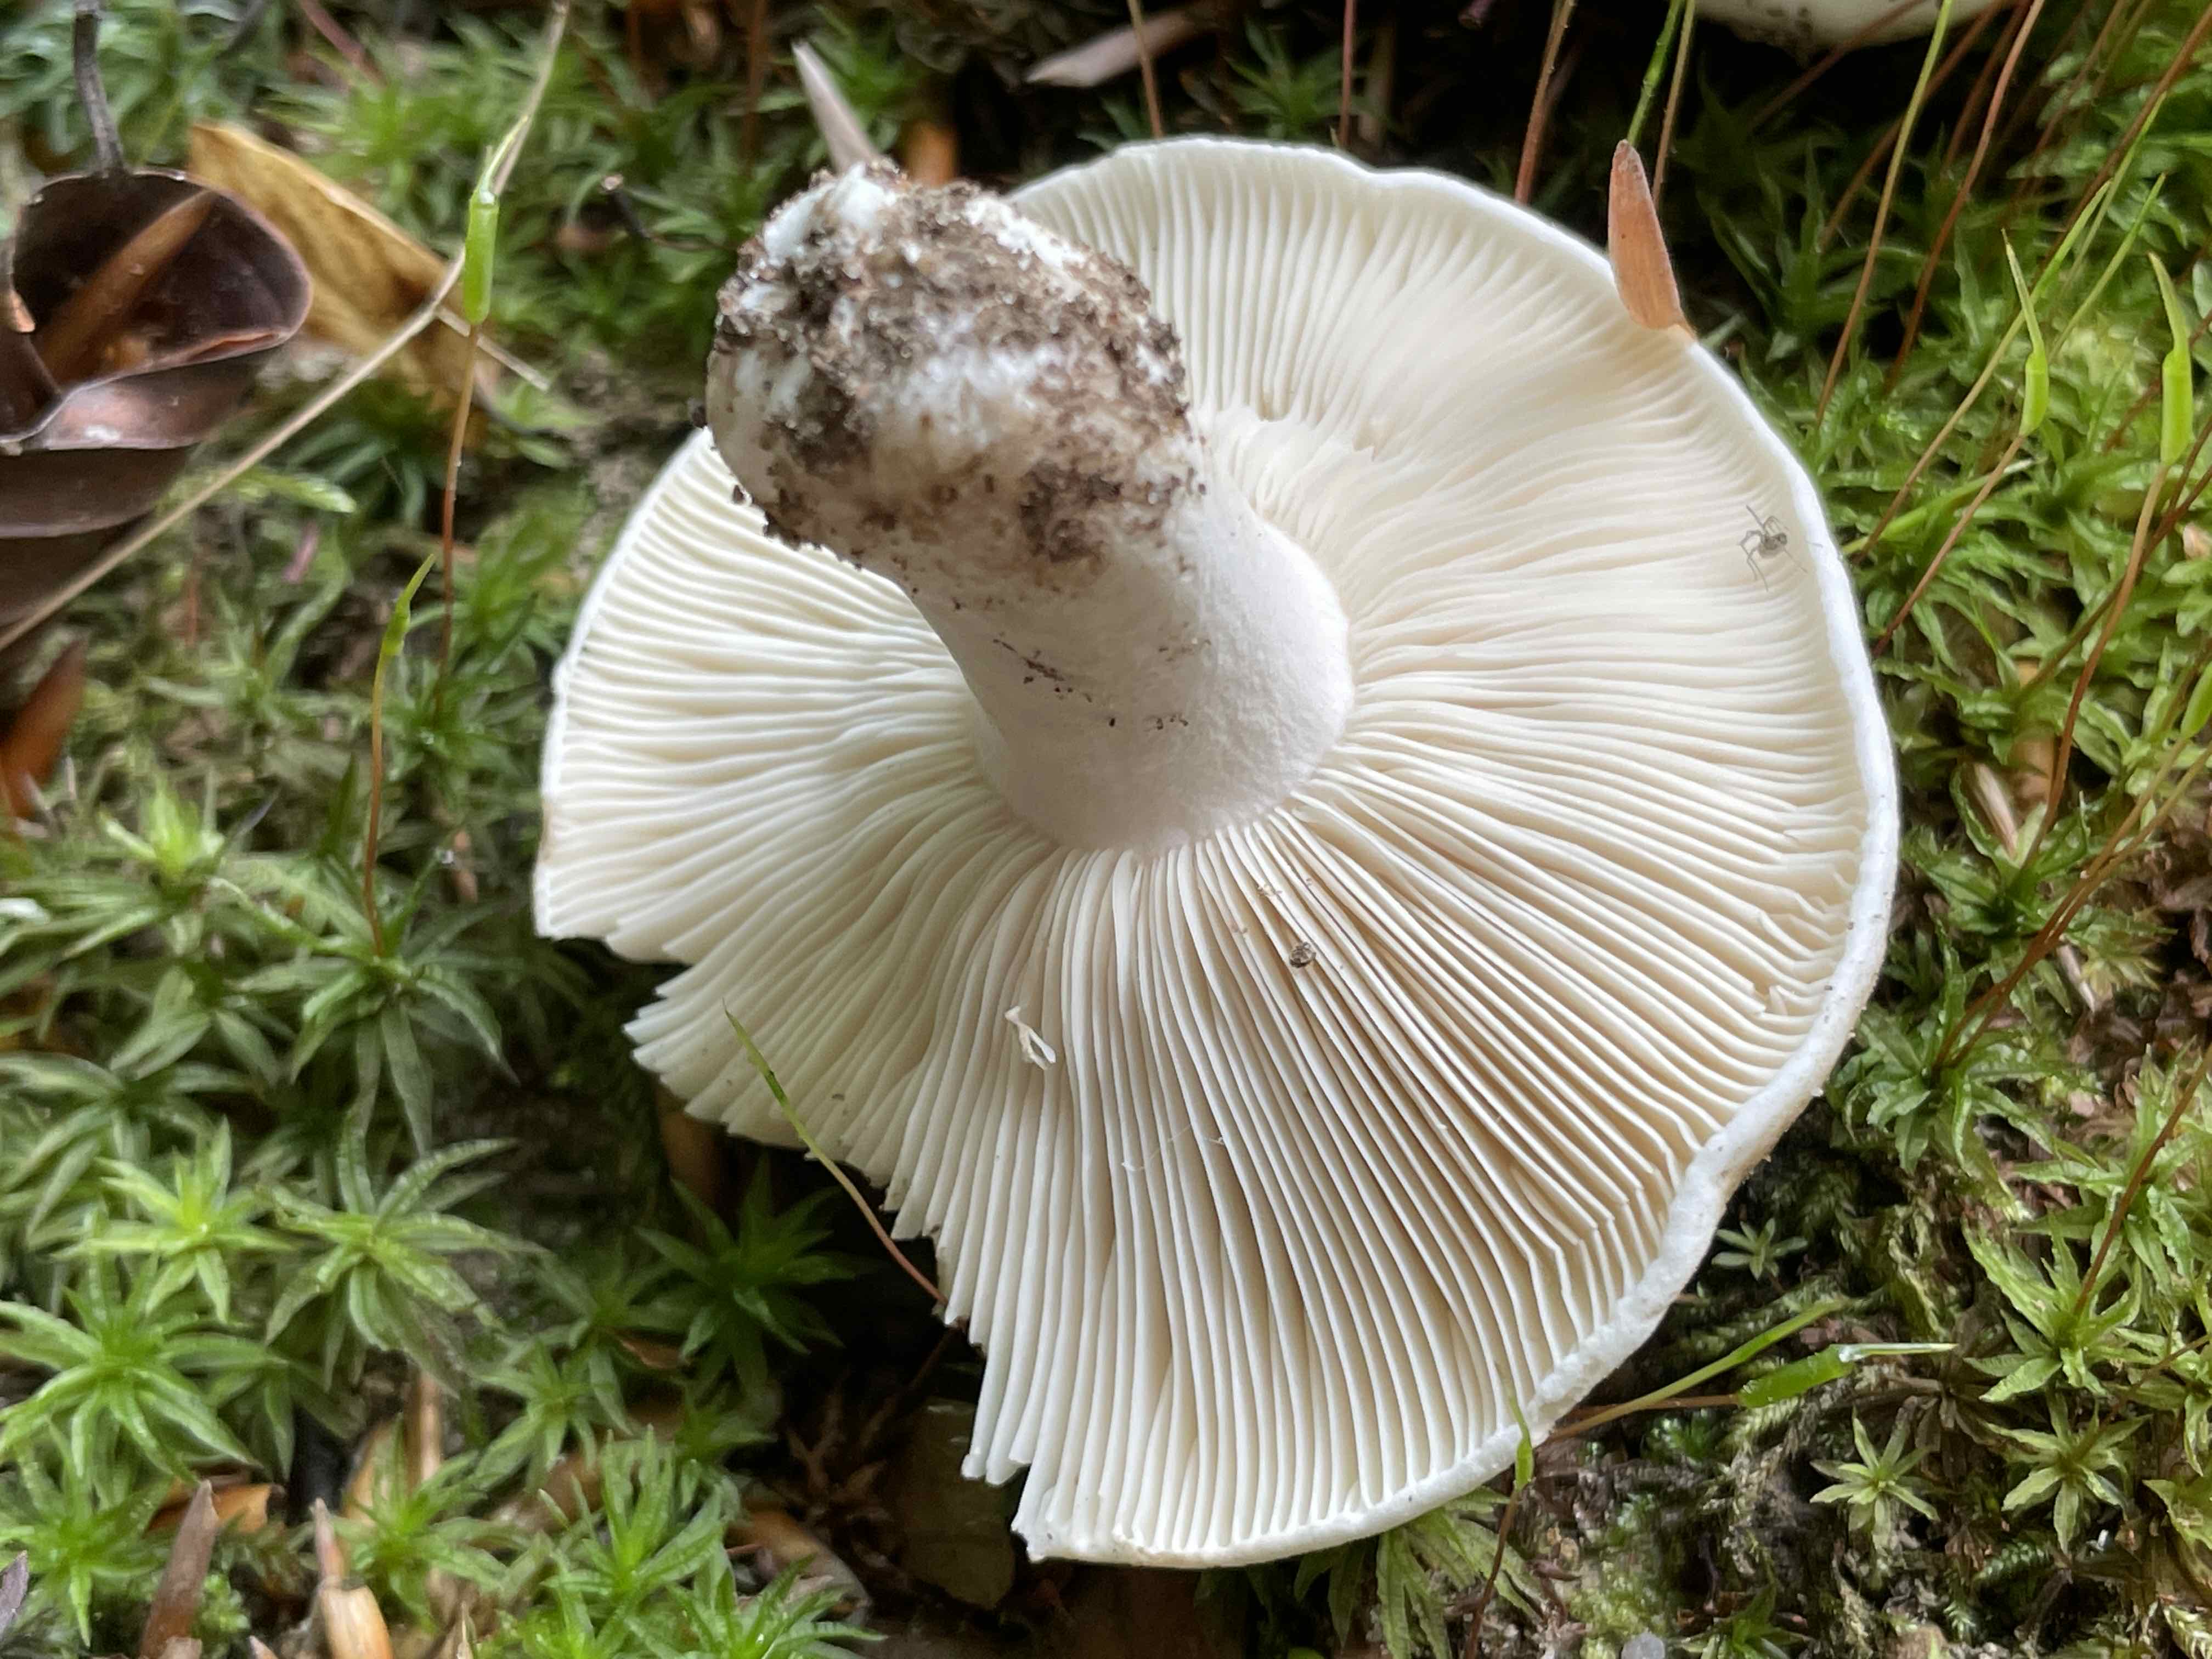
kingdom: Fungi
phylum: Basidiomycota
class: Agaricomycetes
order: Russulales
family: Russulaceae
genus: Russula
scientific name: Russula densifolia
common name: tætbladet skørhat
